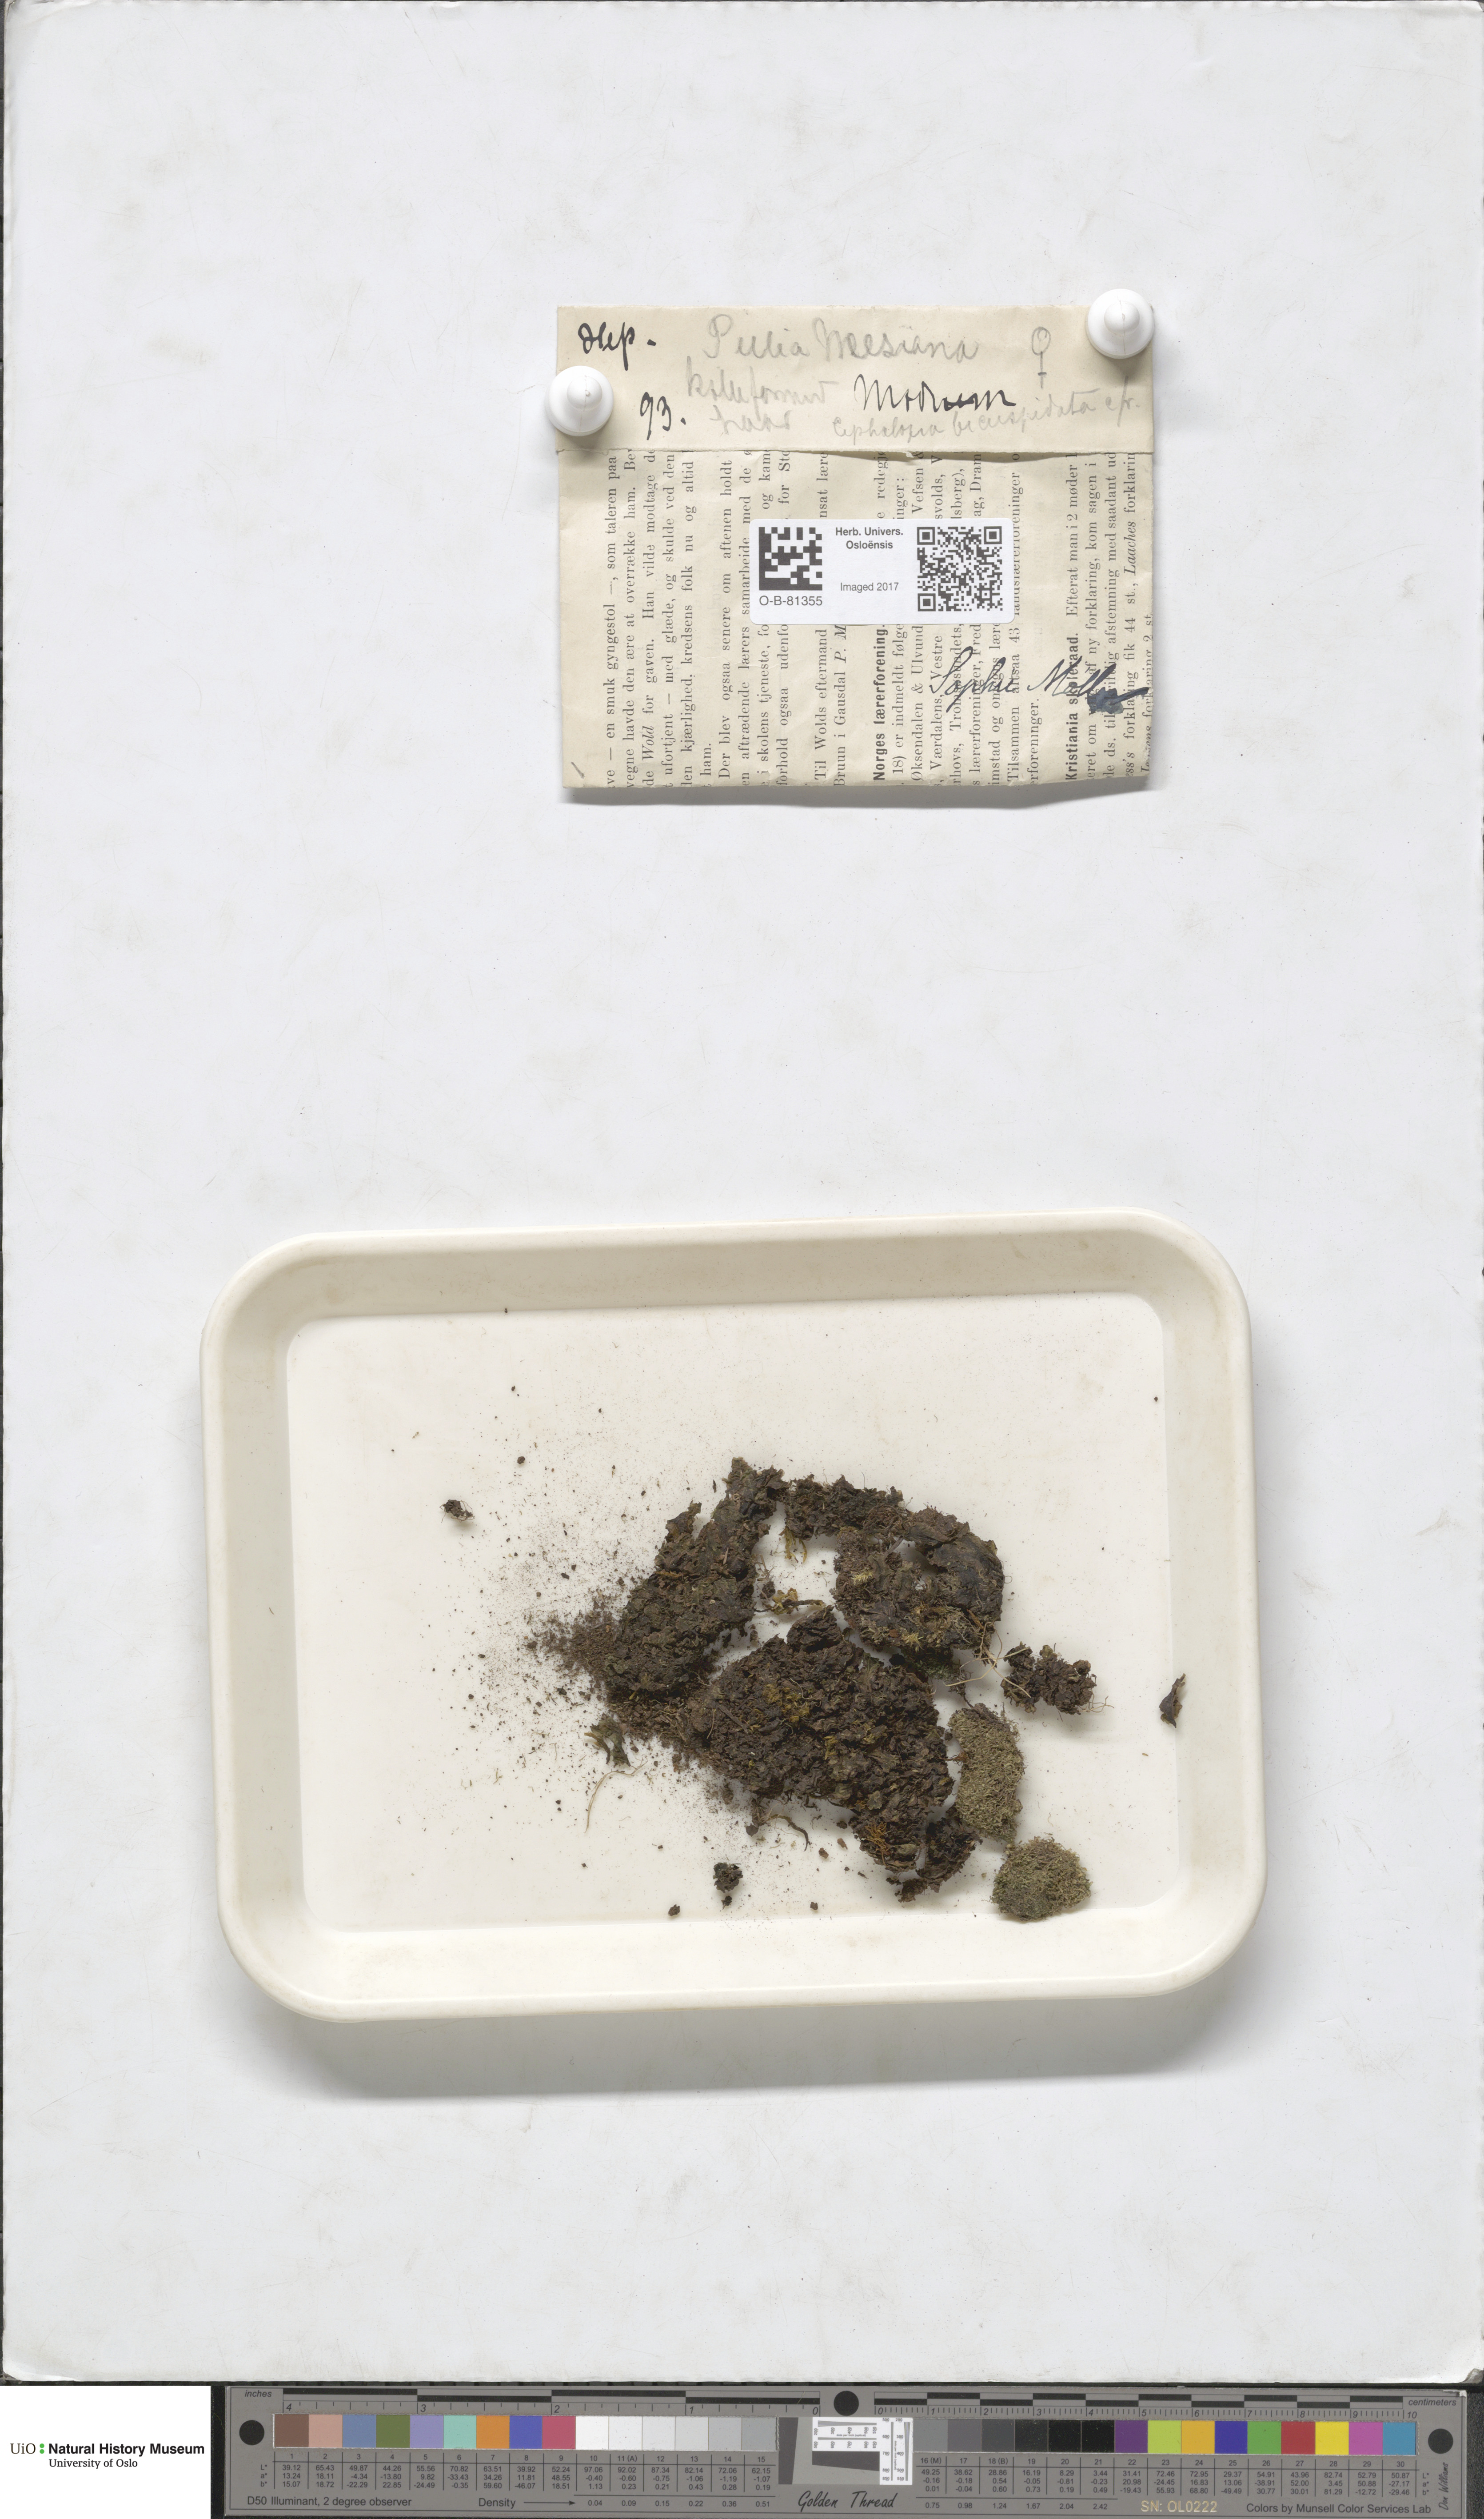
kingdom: Plantae
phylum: Marchantiophyta
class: Jungermanniopsida
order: Pelliales
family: Pelliaceae
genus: Pellia
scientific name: Pellia neesiana
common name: Nees  pellia
